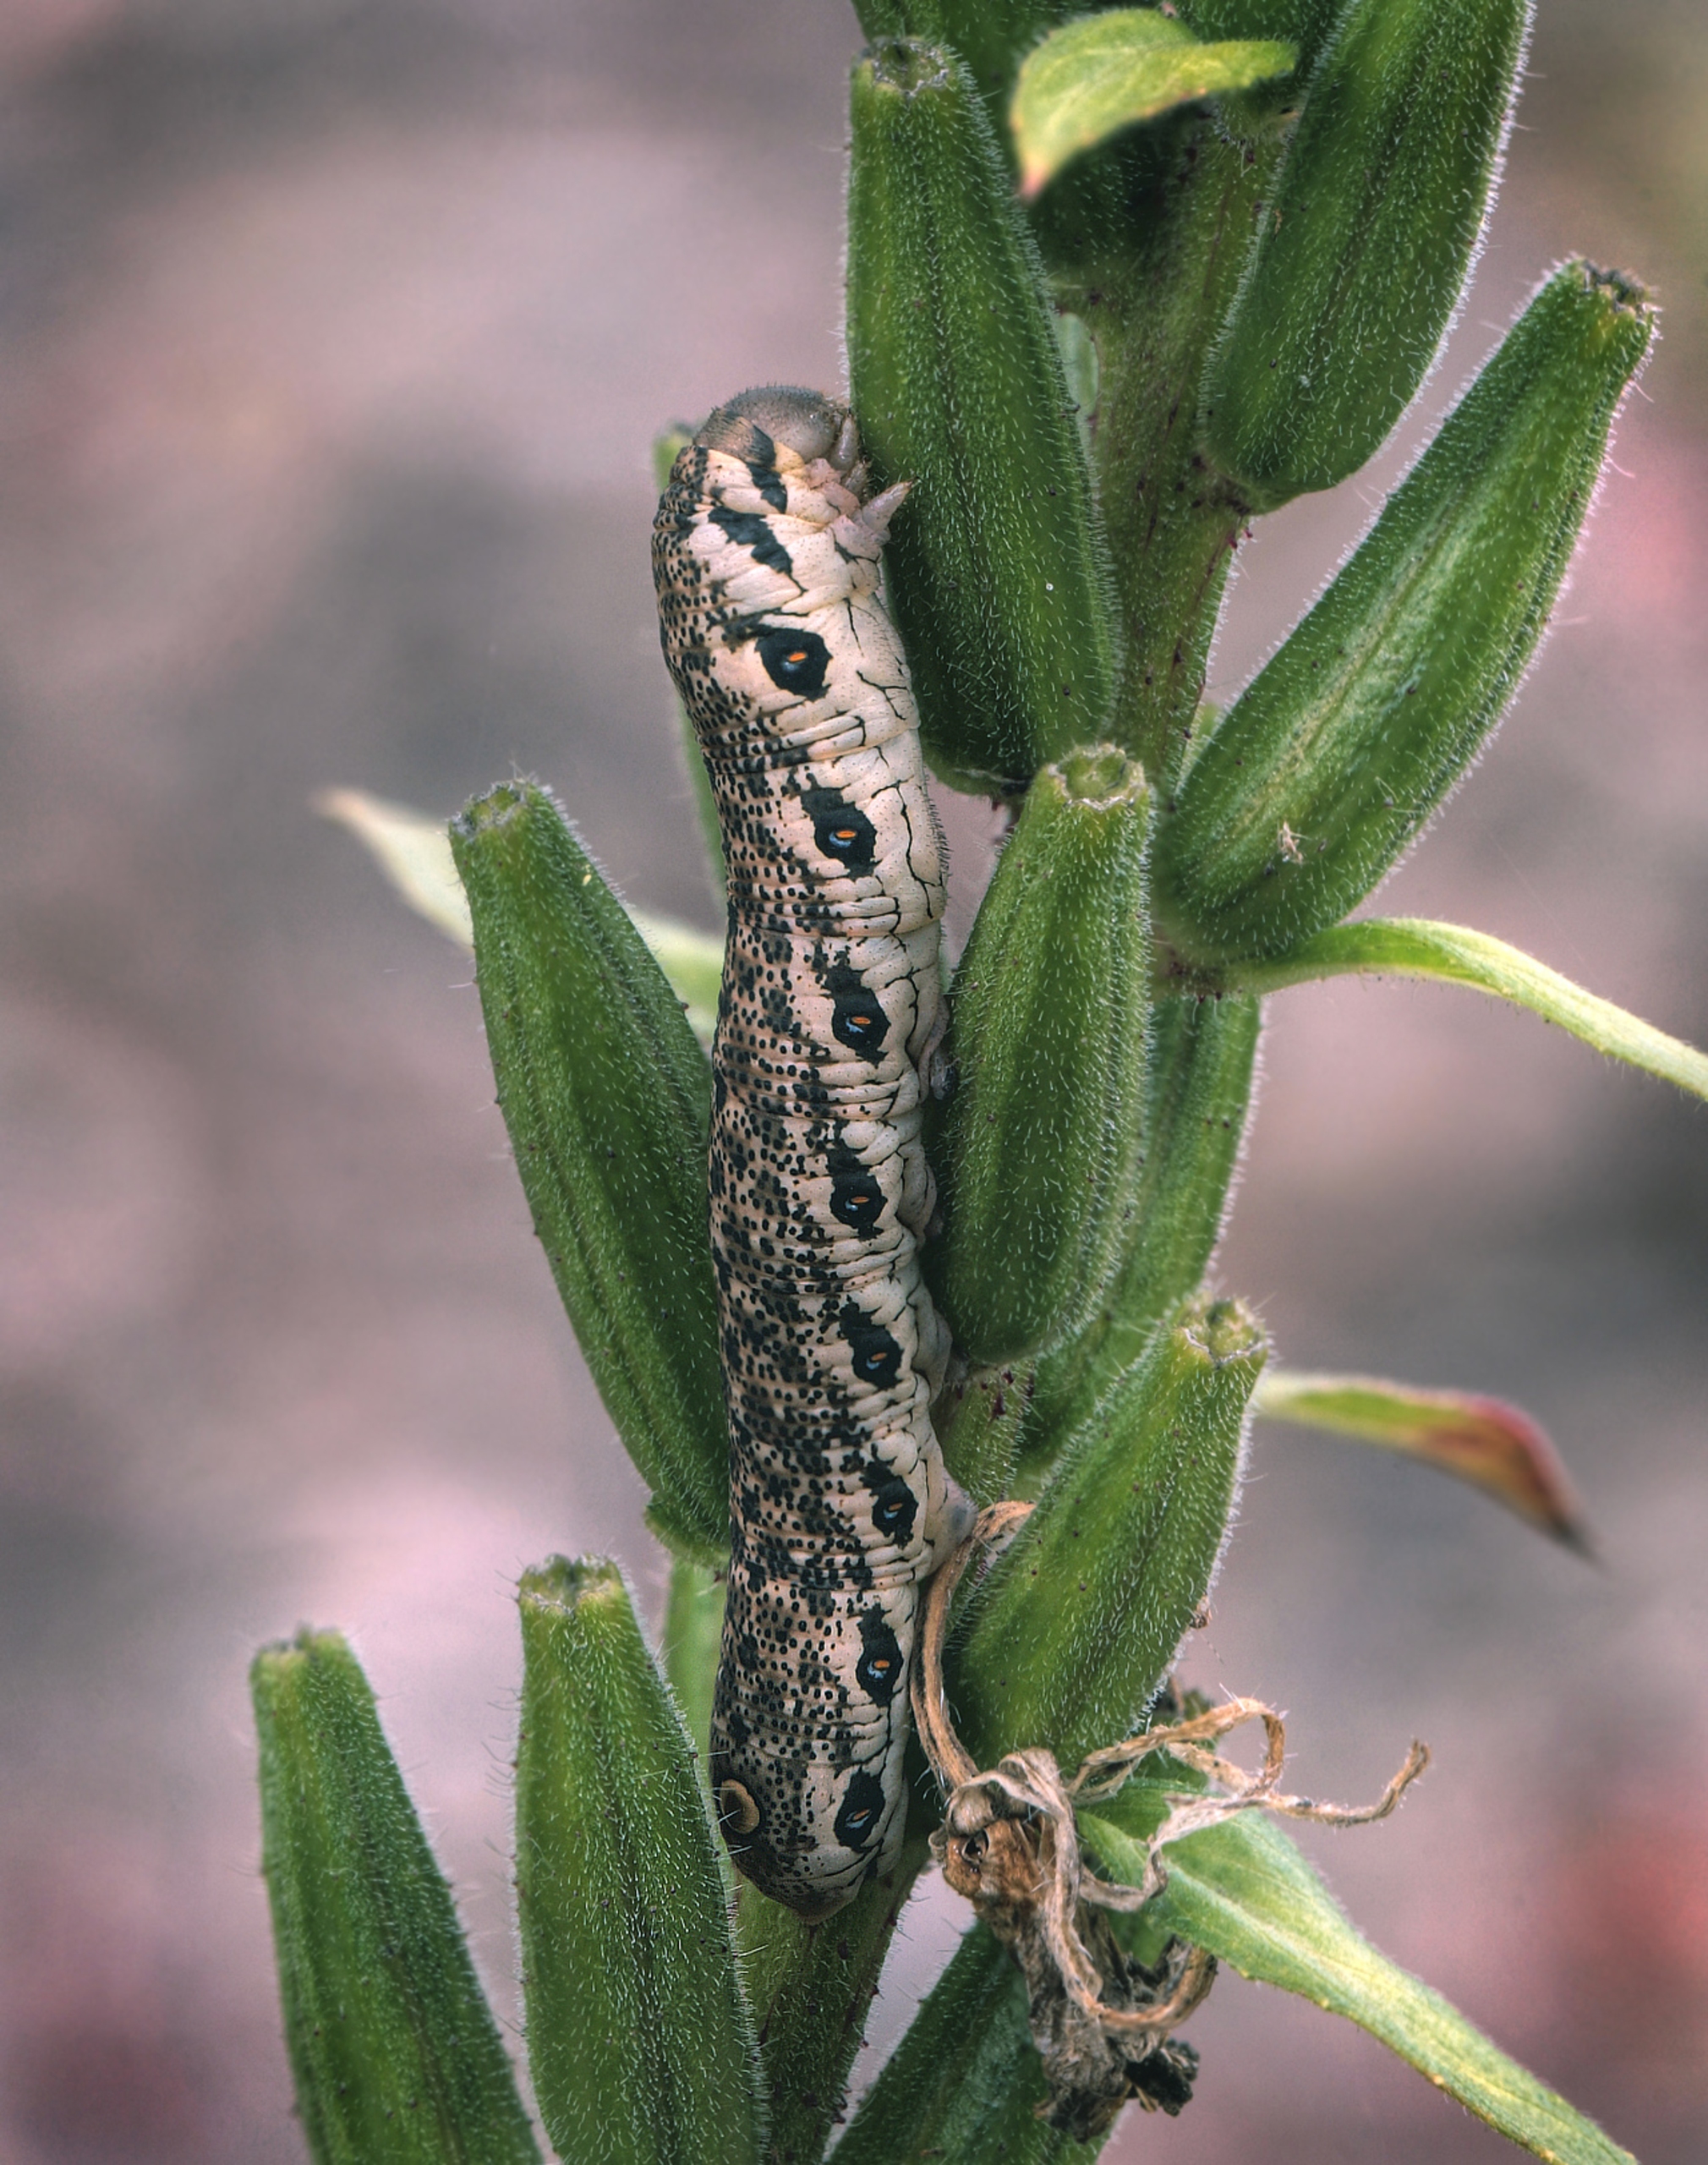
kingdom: Animalia
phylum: Arthropoda
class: Insecta
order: Lepidoptera
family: Sphingidae
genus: Proserpinus
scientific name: Proserpinus proserpina
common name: Natlyssværmer
